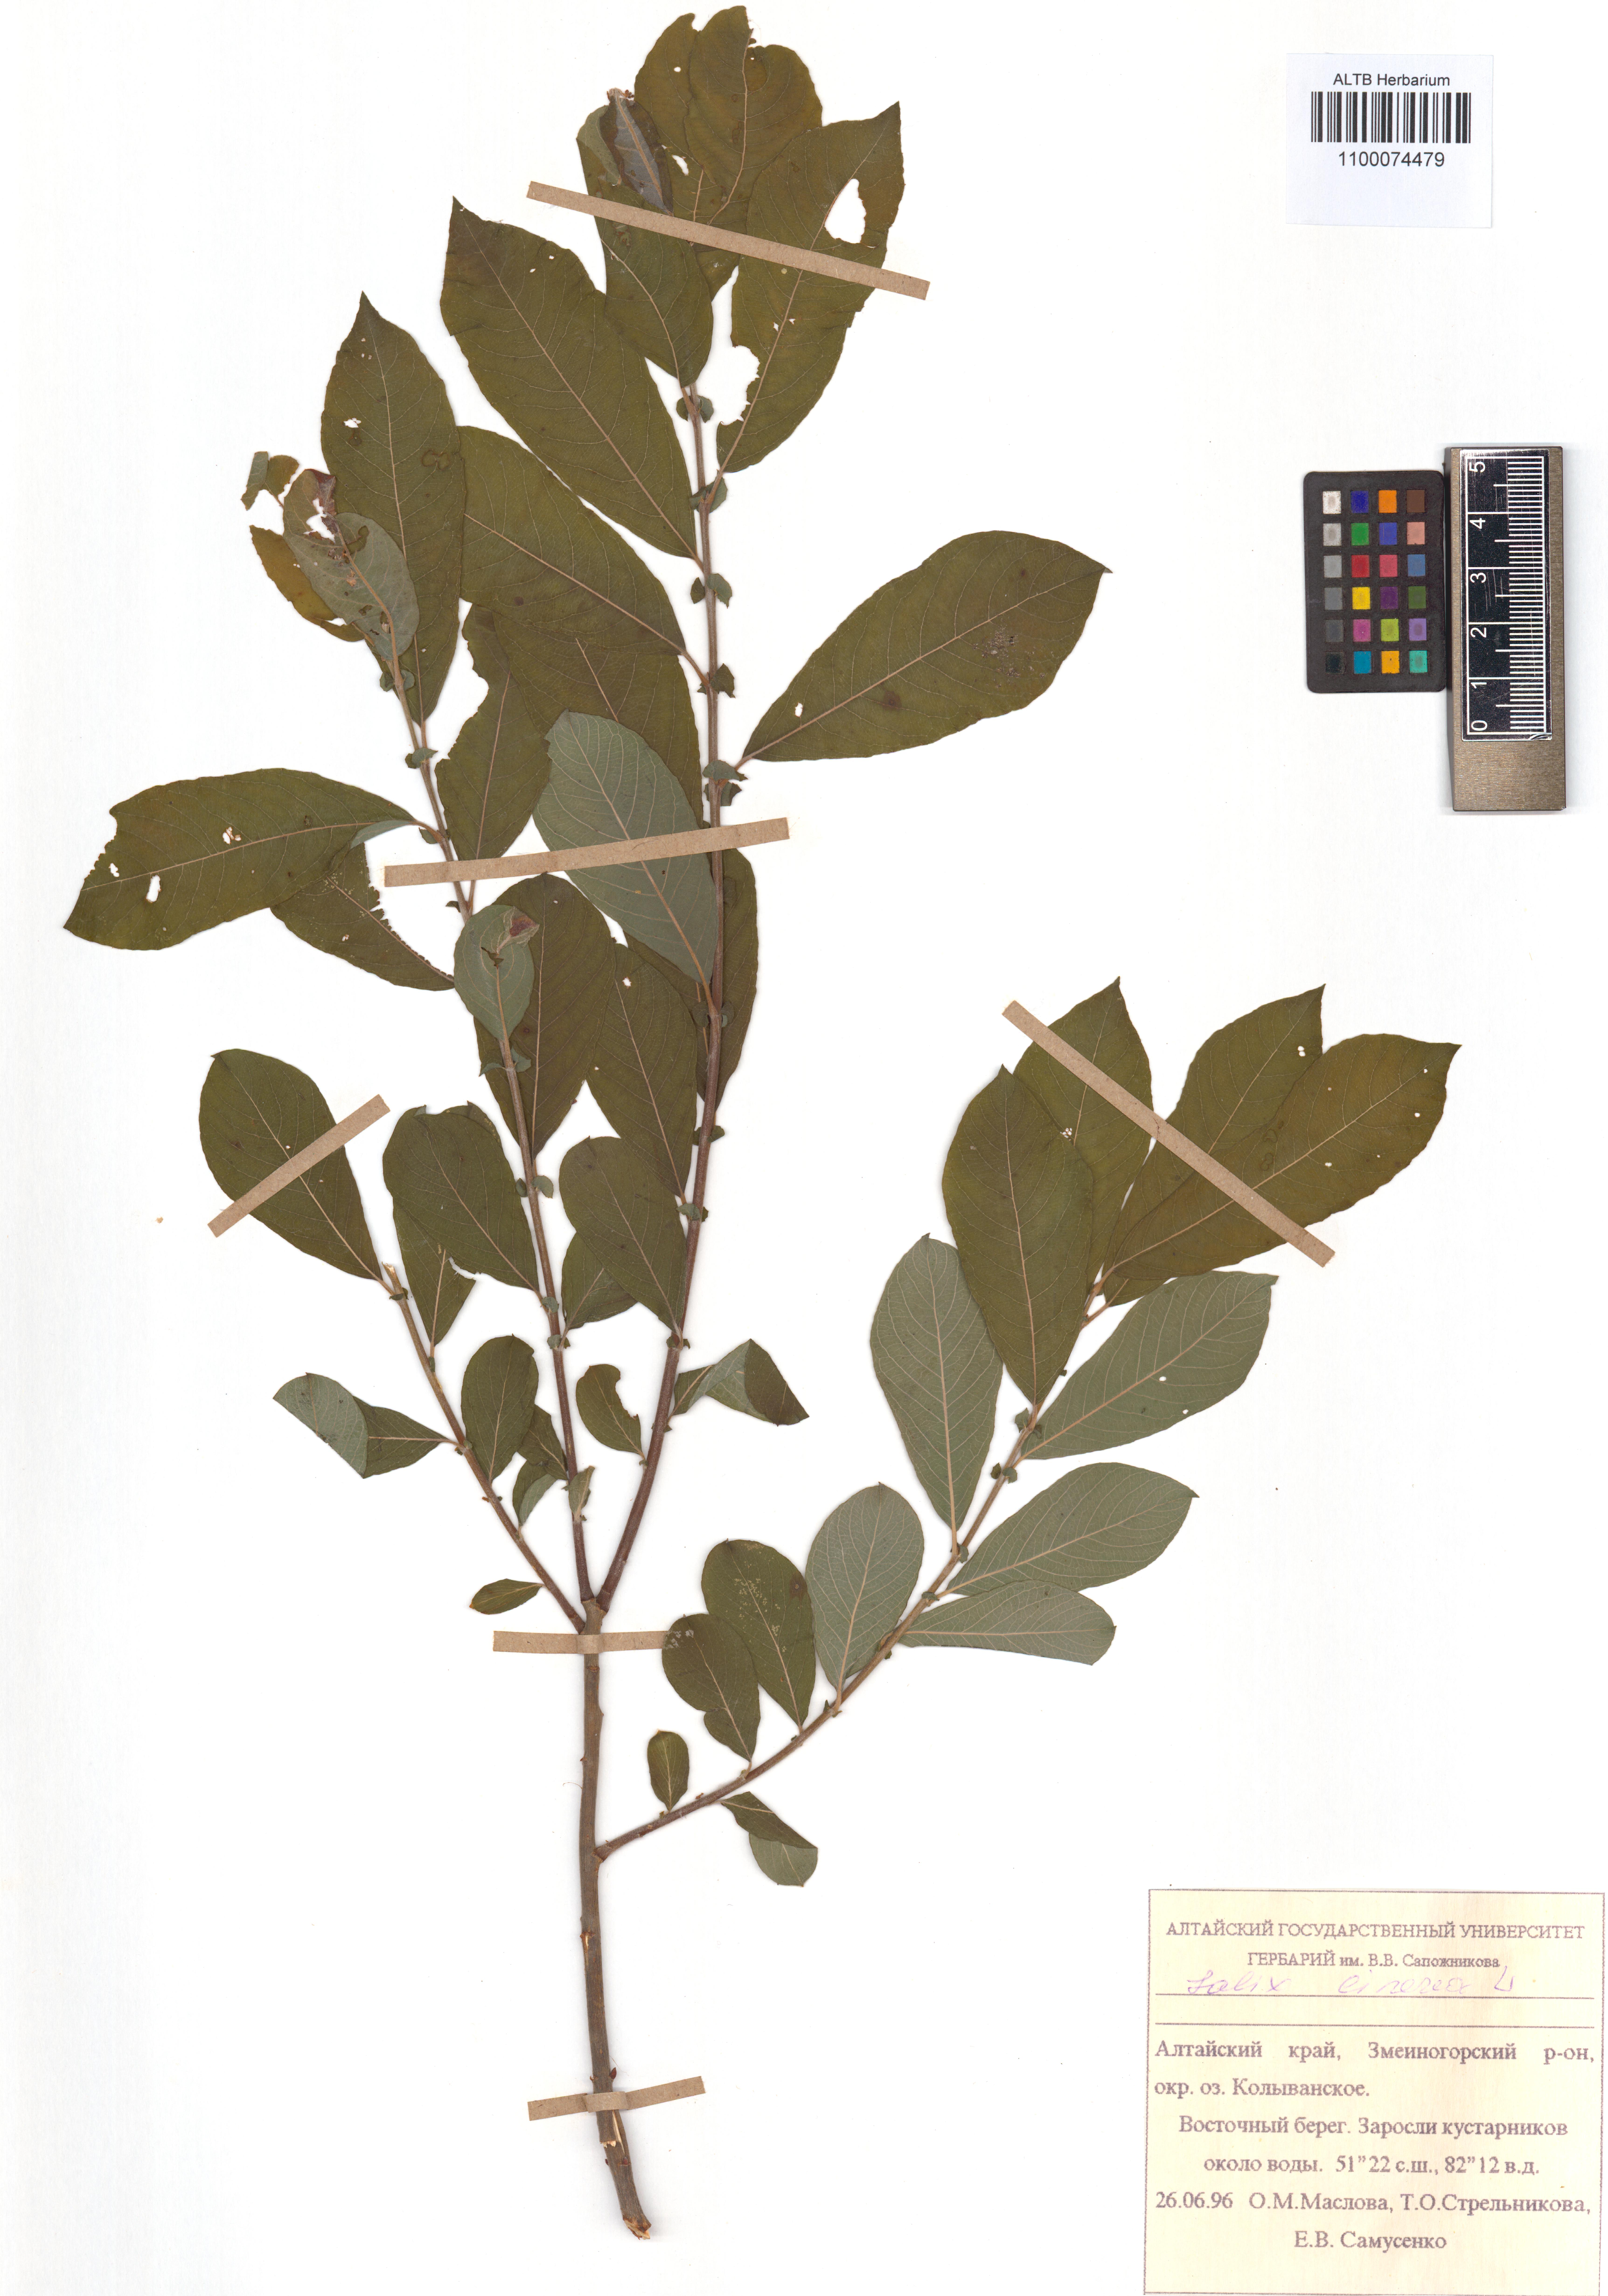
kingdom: Plantae
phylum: Tracheophyta
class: Magnoliopsida
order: Malpighiales
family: Salicaceae
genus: Salix
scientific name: Salix cinerea
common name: Common sallow
